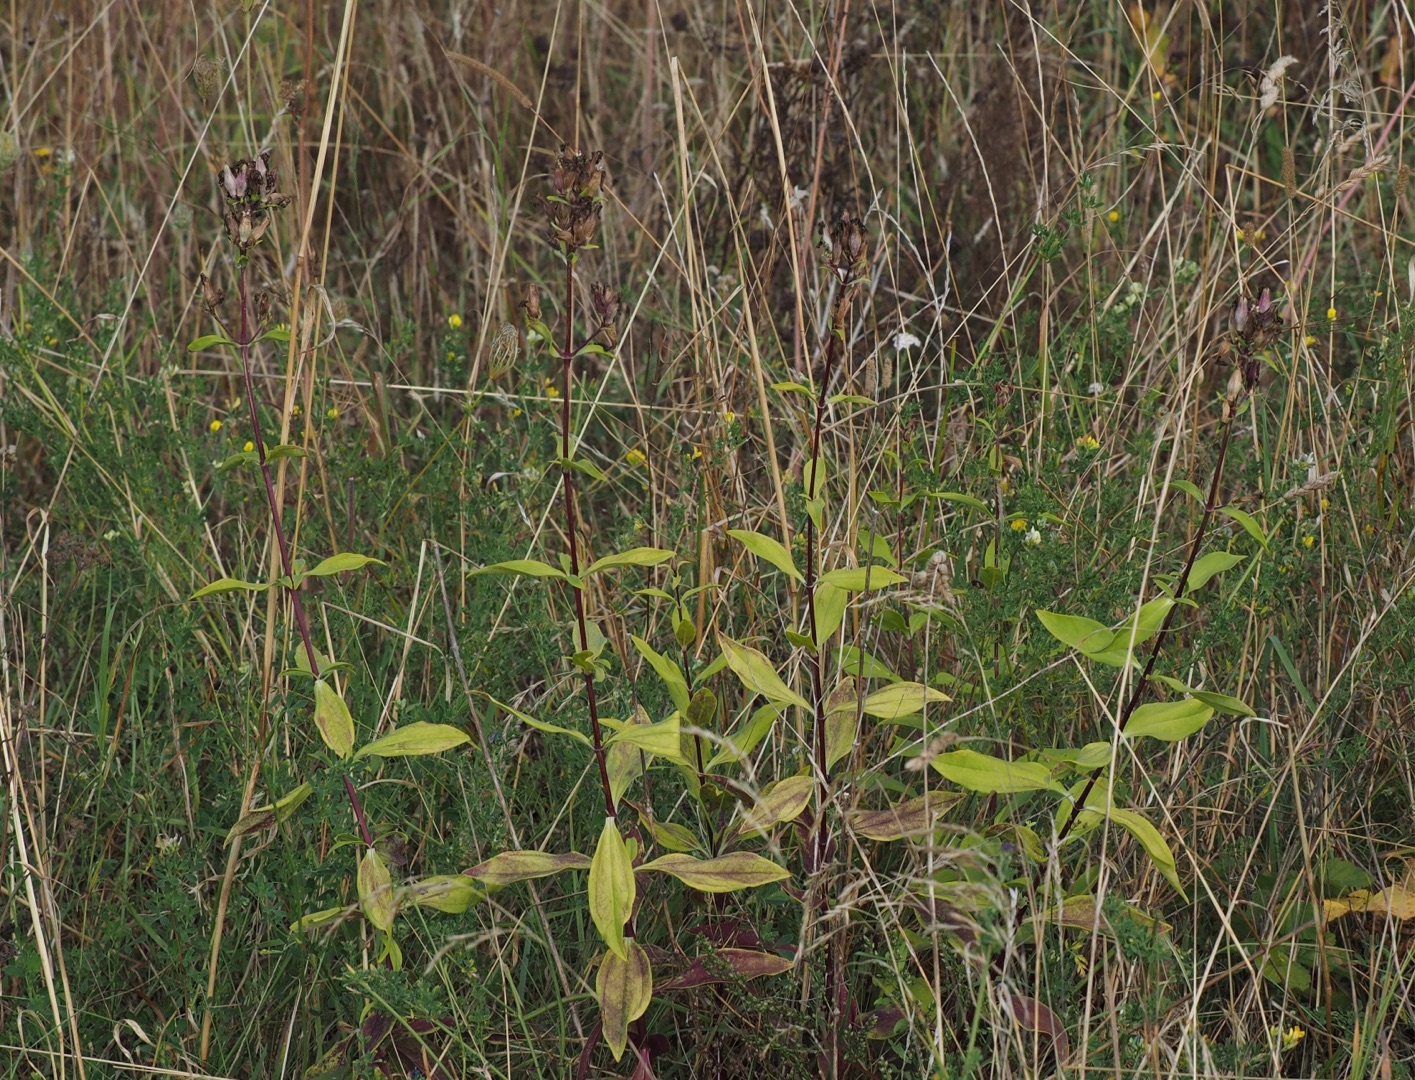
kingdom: Plantae
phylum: Tracheophyta
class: Magnoliopsida
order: Caryophyllales
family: Caryophyllaceae
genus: Saponaria
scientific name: Saponaria officinalis
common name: Sæbeurt
